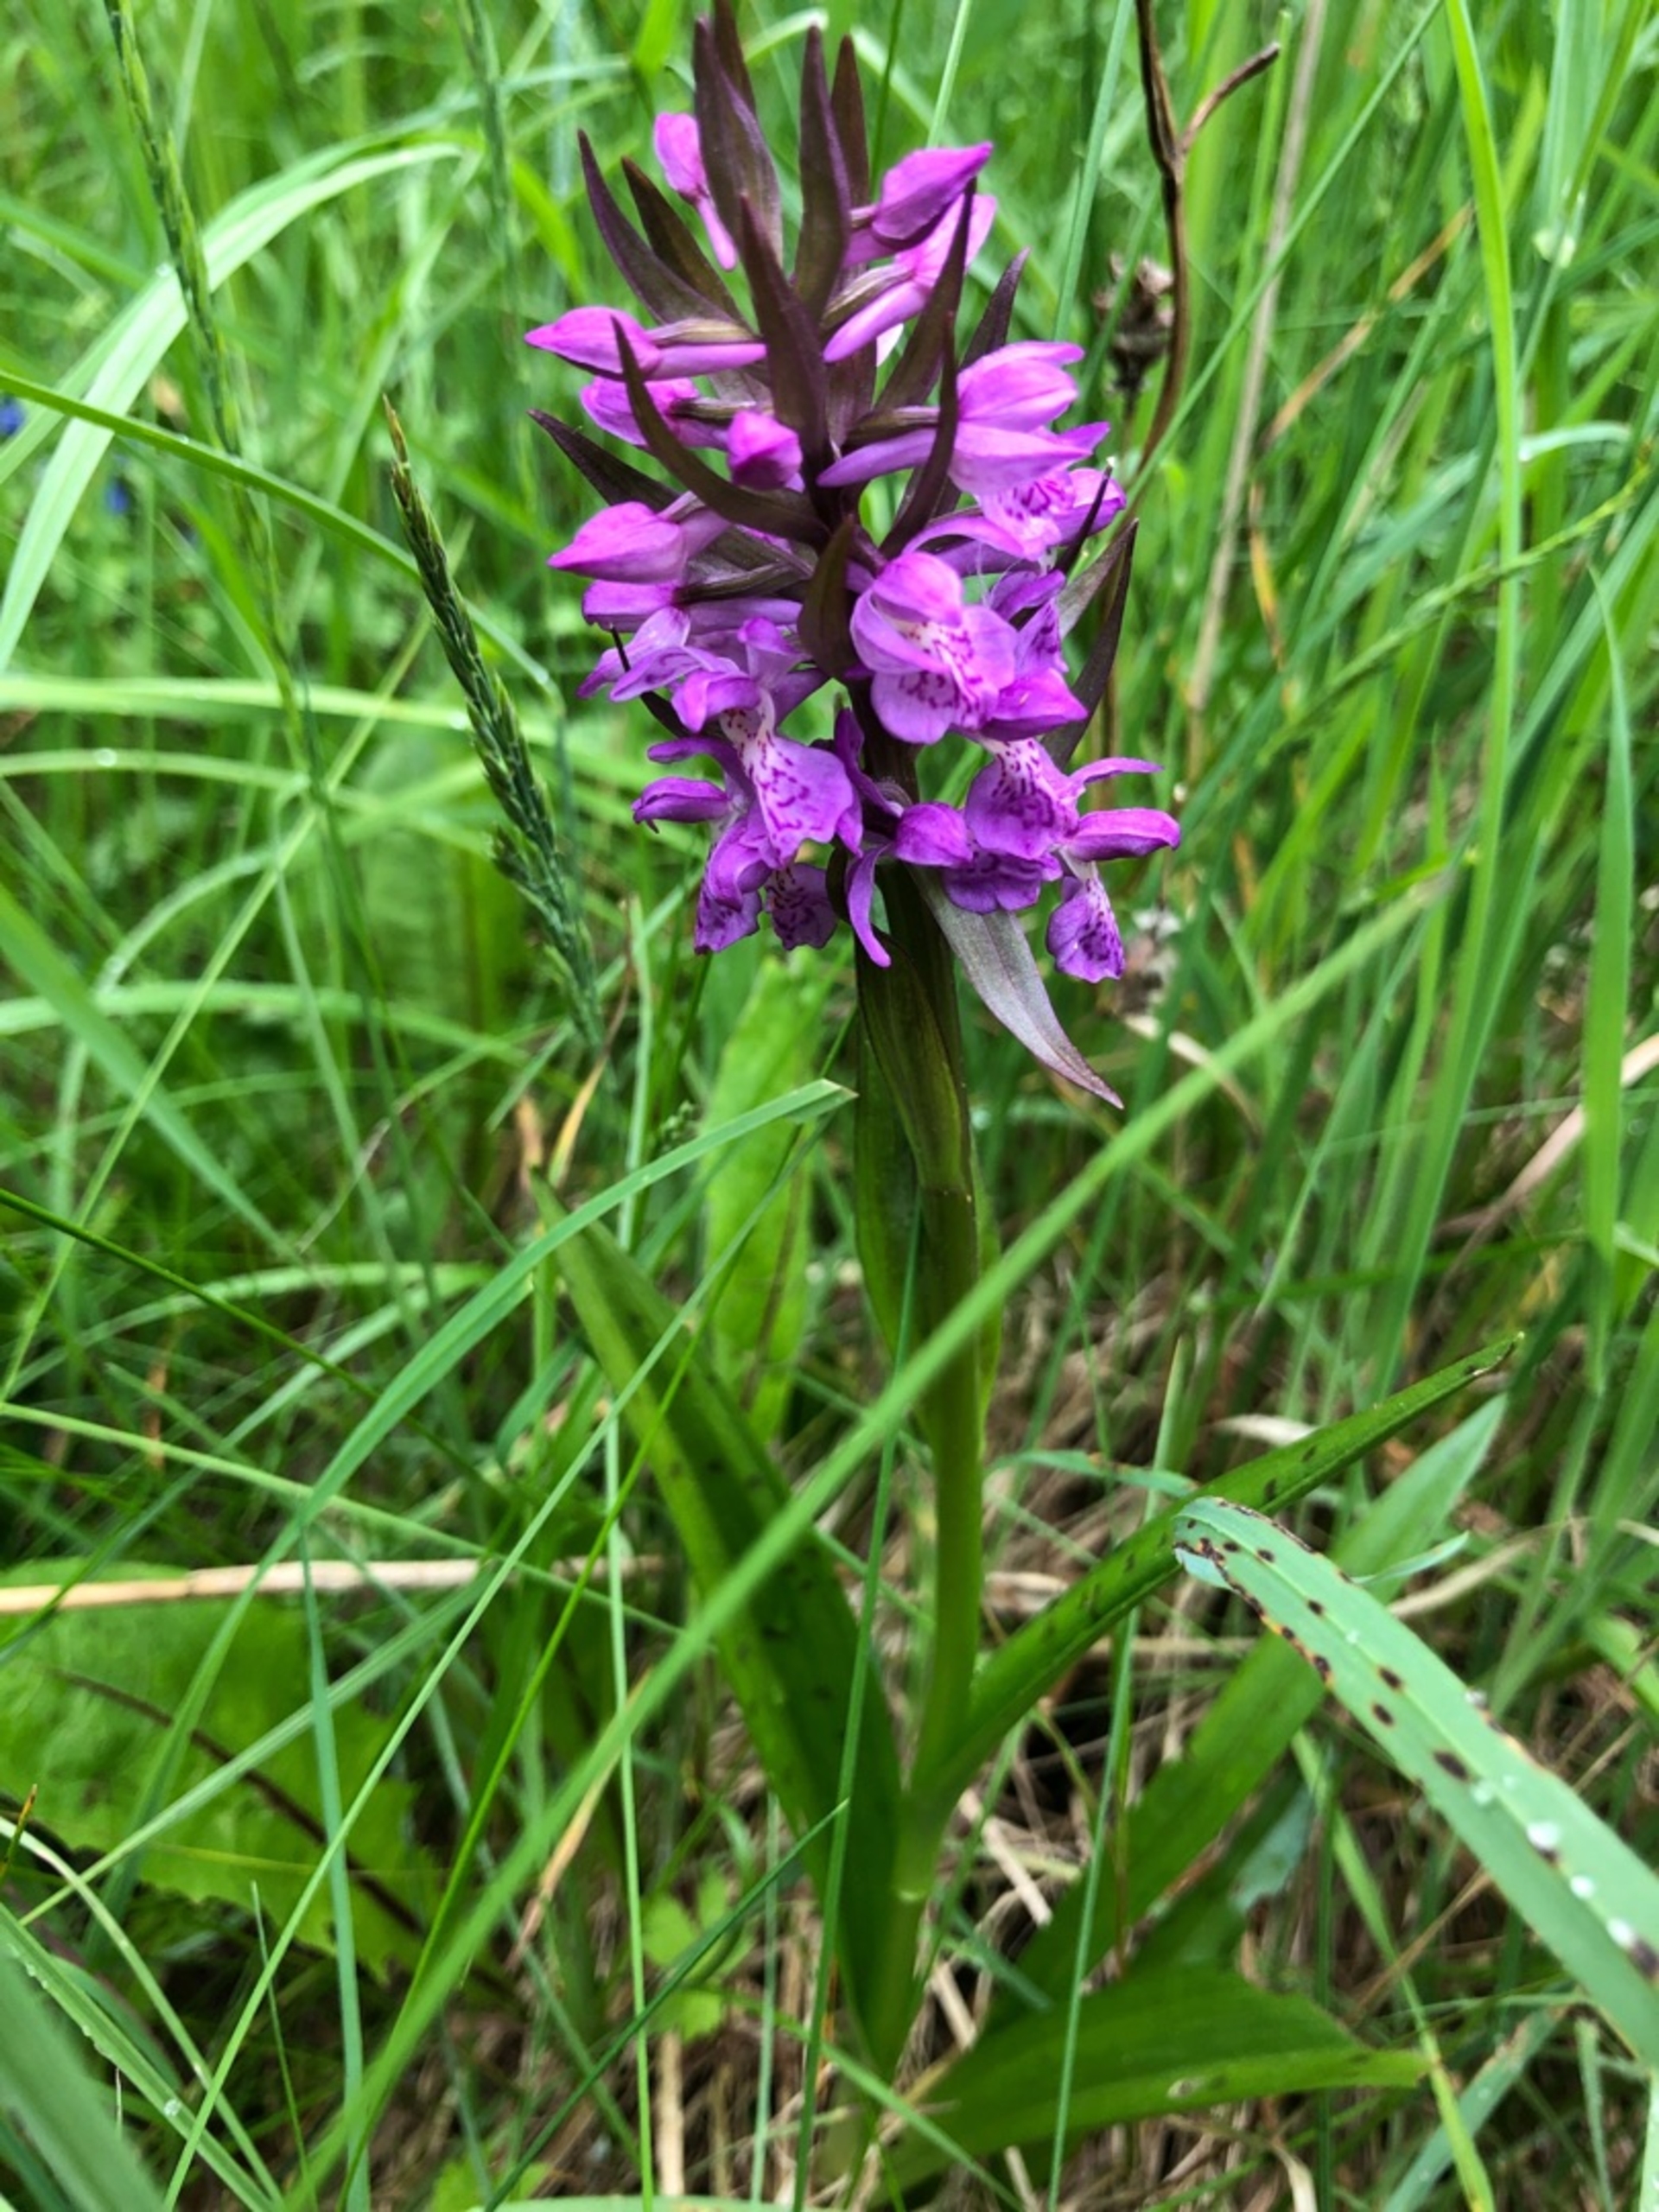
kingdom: Plantae
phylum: Tracheophyta
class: Liliopsida
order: Asparagales
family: Orchidaceae
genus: Dactylorhiza
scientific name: Dactylorhiza majalis
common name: Maj-gøgeurt
